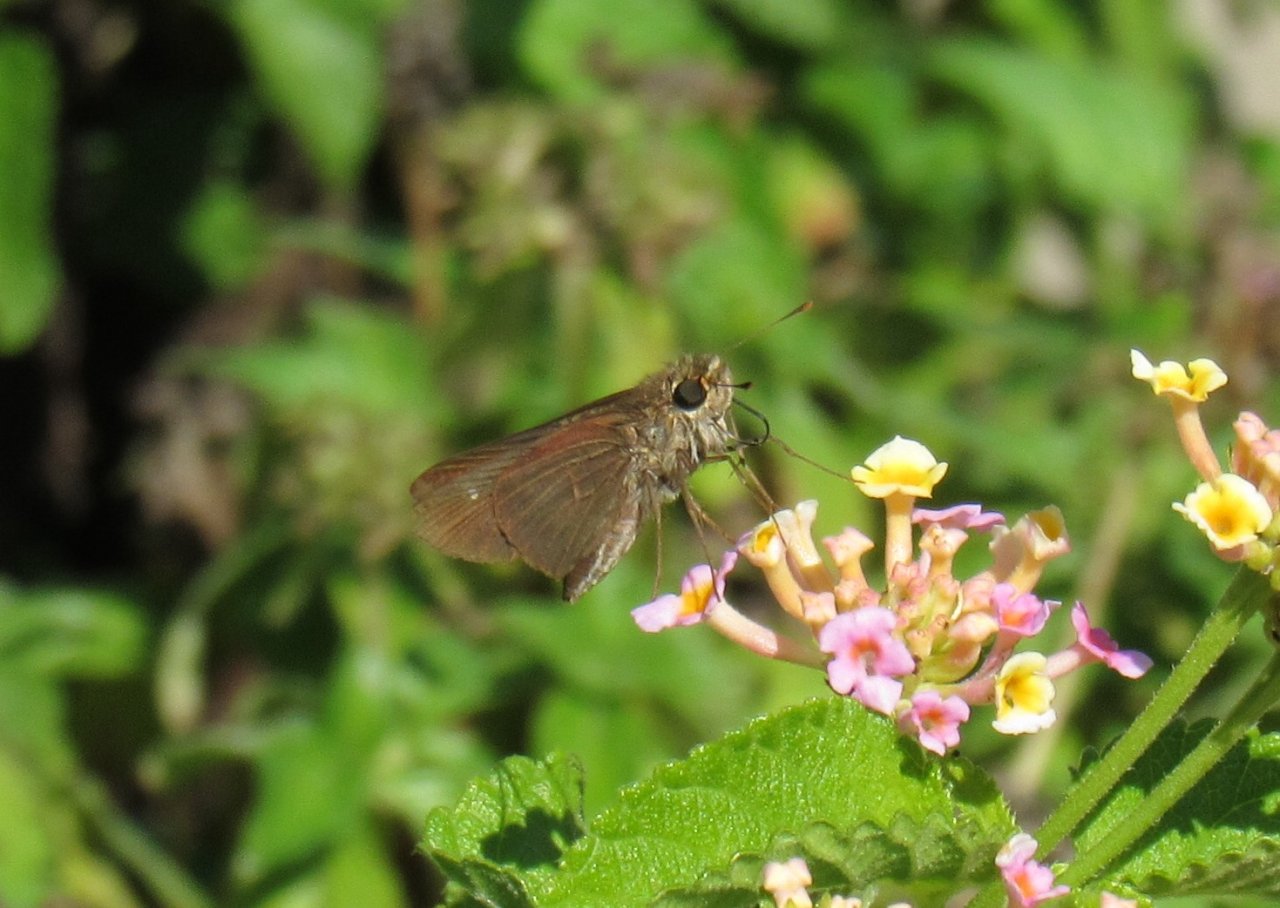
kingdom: Animalia
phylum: Arthropoda
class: Insecta
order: Lepidoptera
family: Hesperiidae
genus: Panoquina
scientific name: Panoquina ocola
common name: Ocola Skipper
